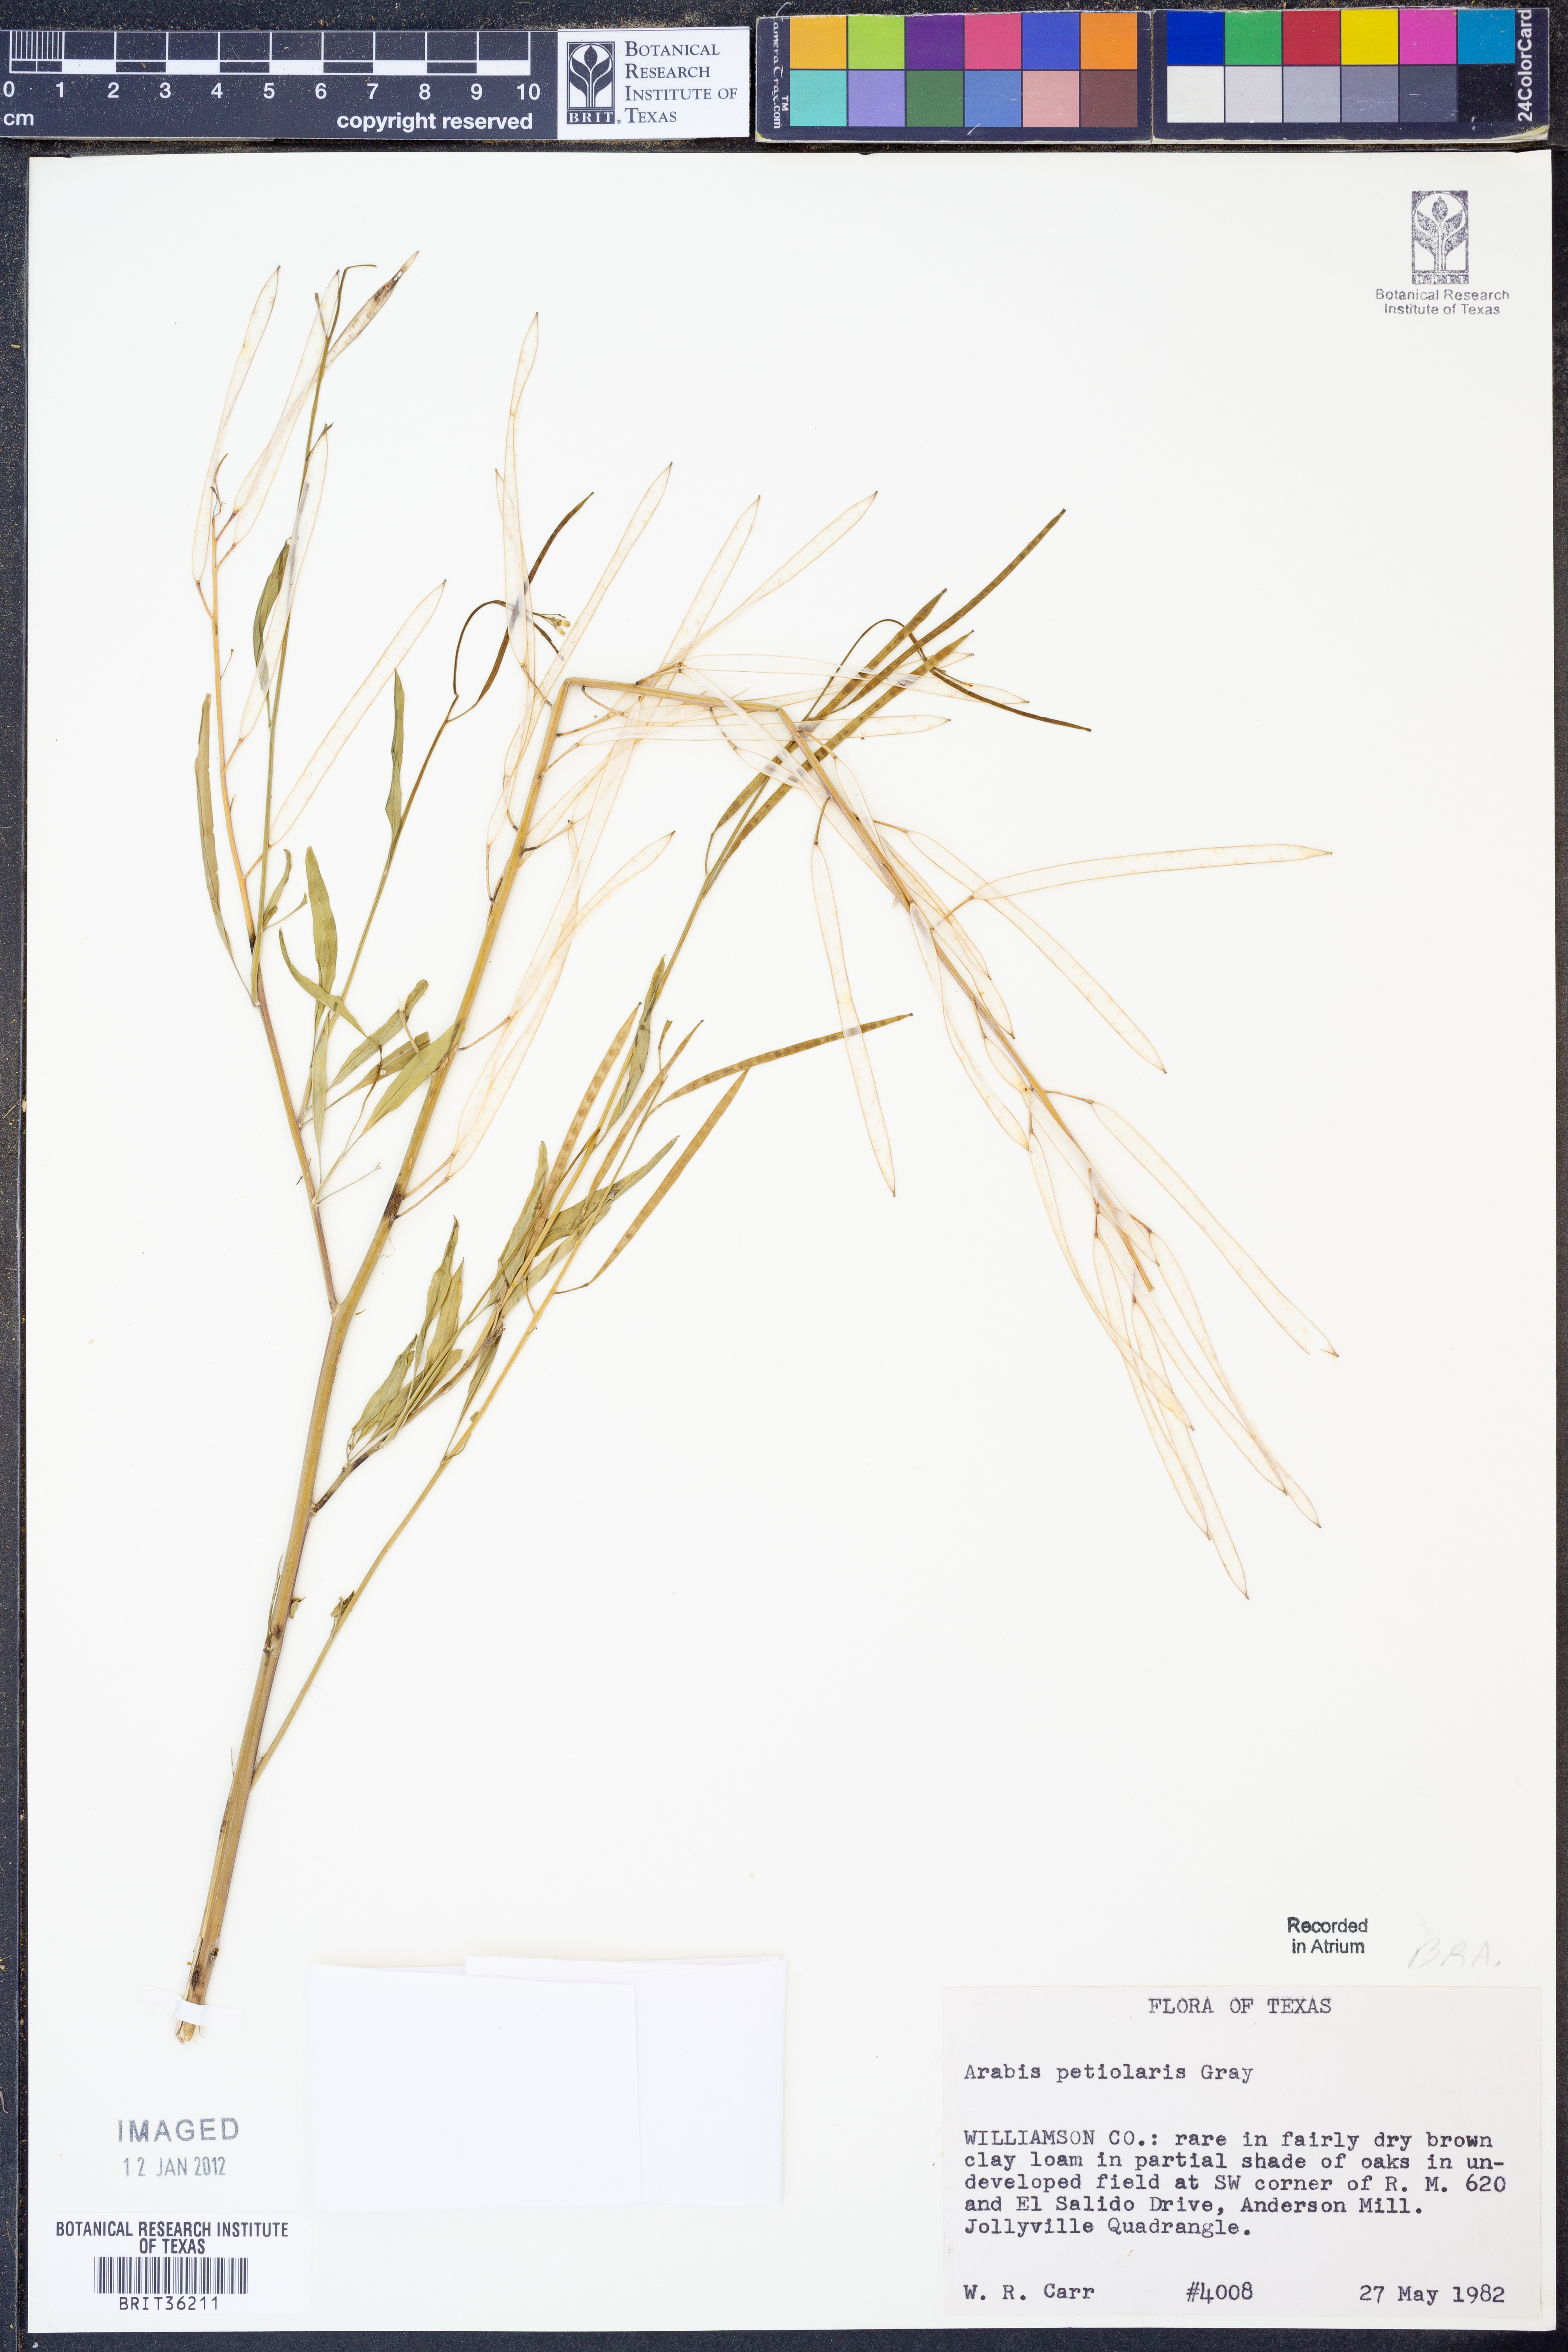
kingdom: Plantae
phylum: Tracheophyta
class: Magnoliopsida
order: Brassicales
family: Brassicaceae
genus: Streptanthus
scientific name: Streptanthus petiolaris
